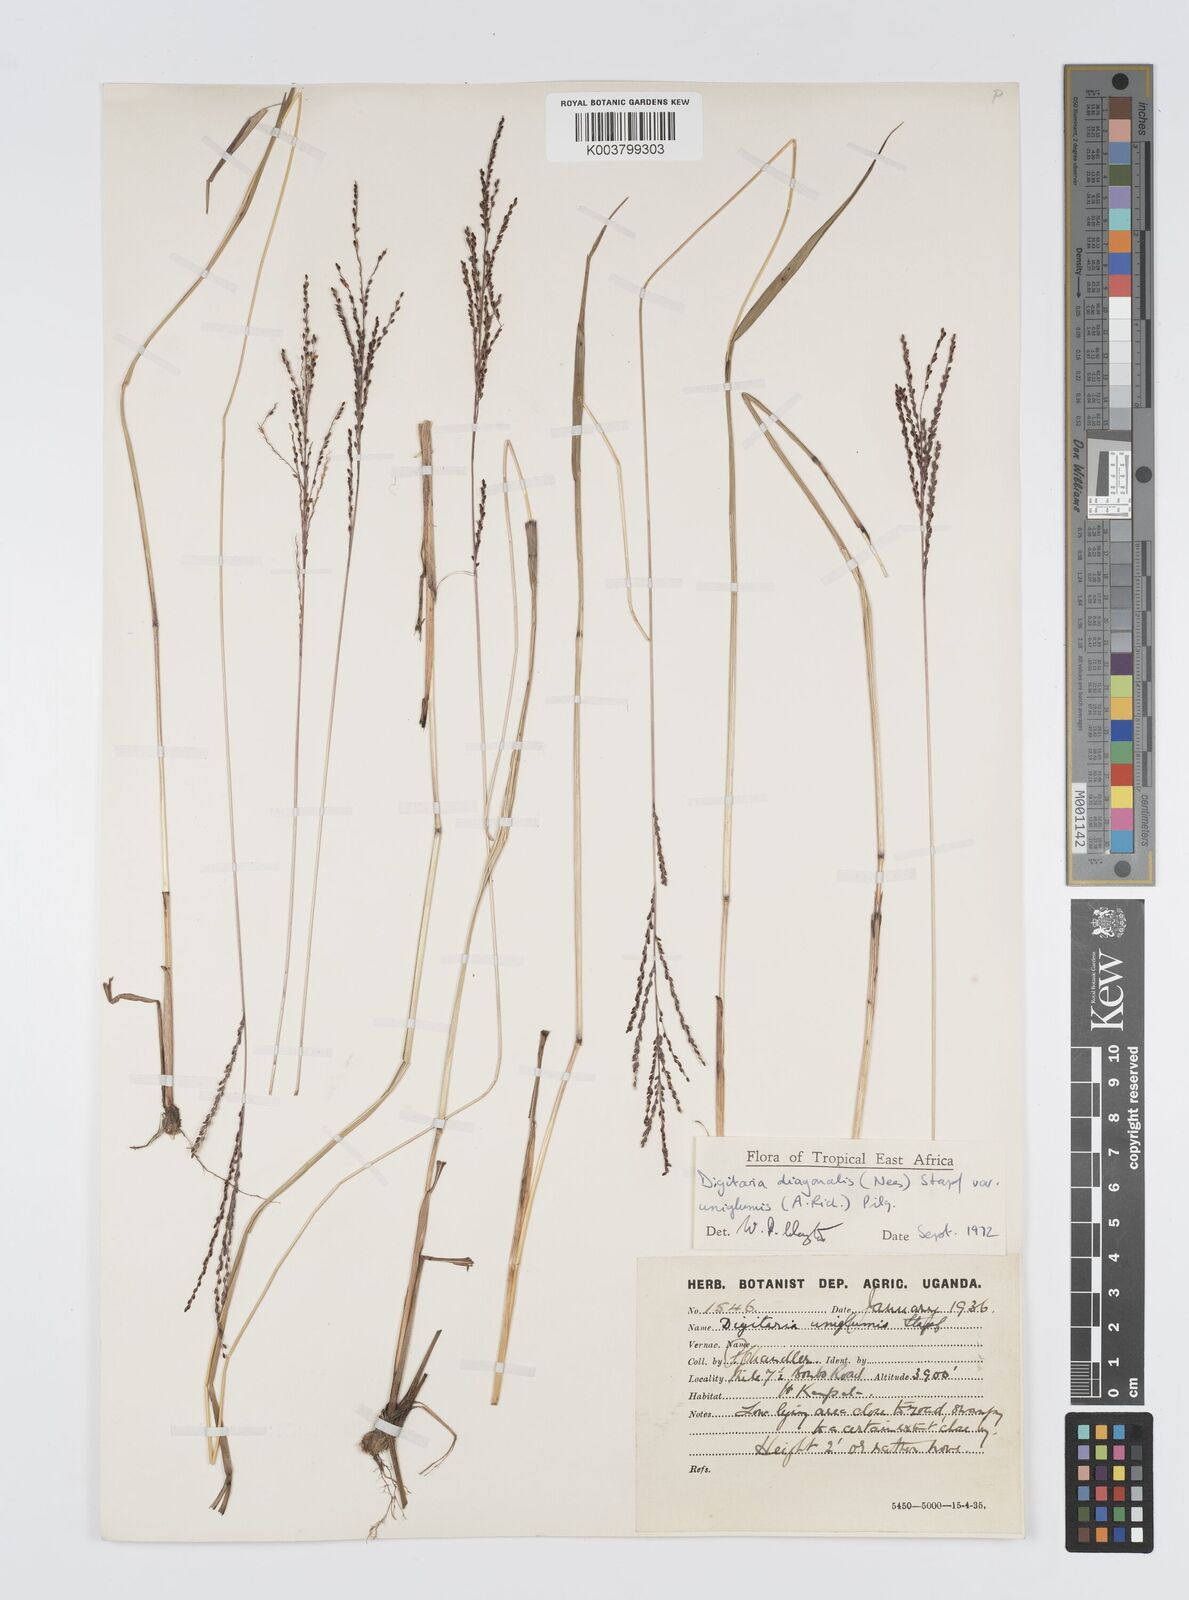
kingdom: Plantae
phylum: Tracheophyta
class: Liliopsida
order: Poales
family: Poaceae
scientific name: Poaceae
